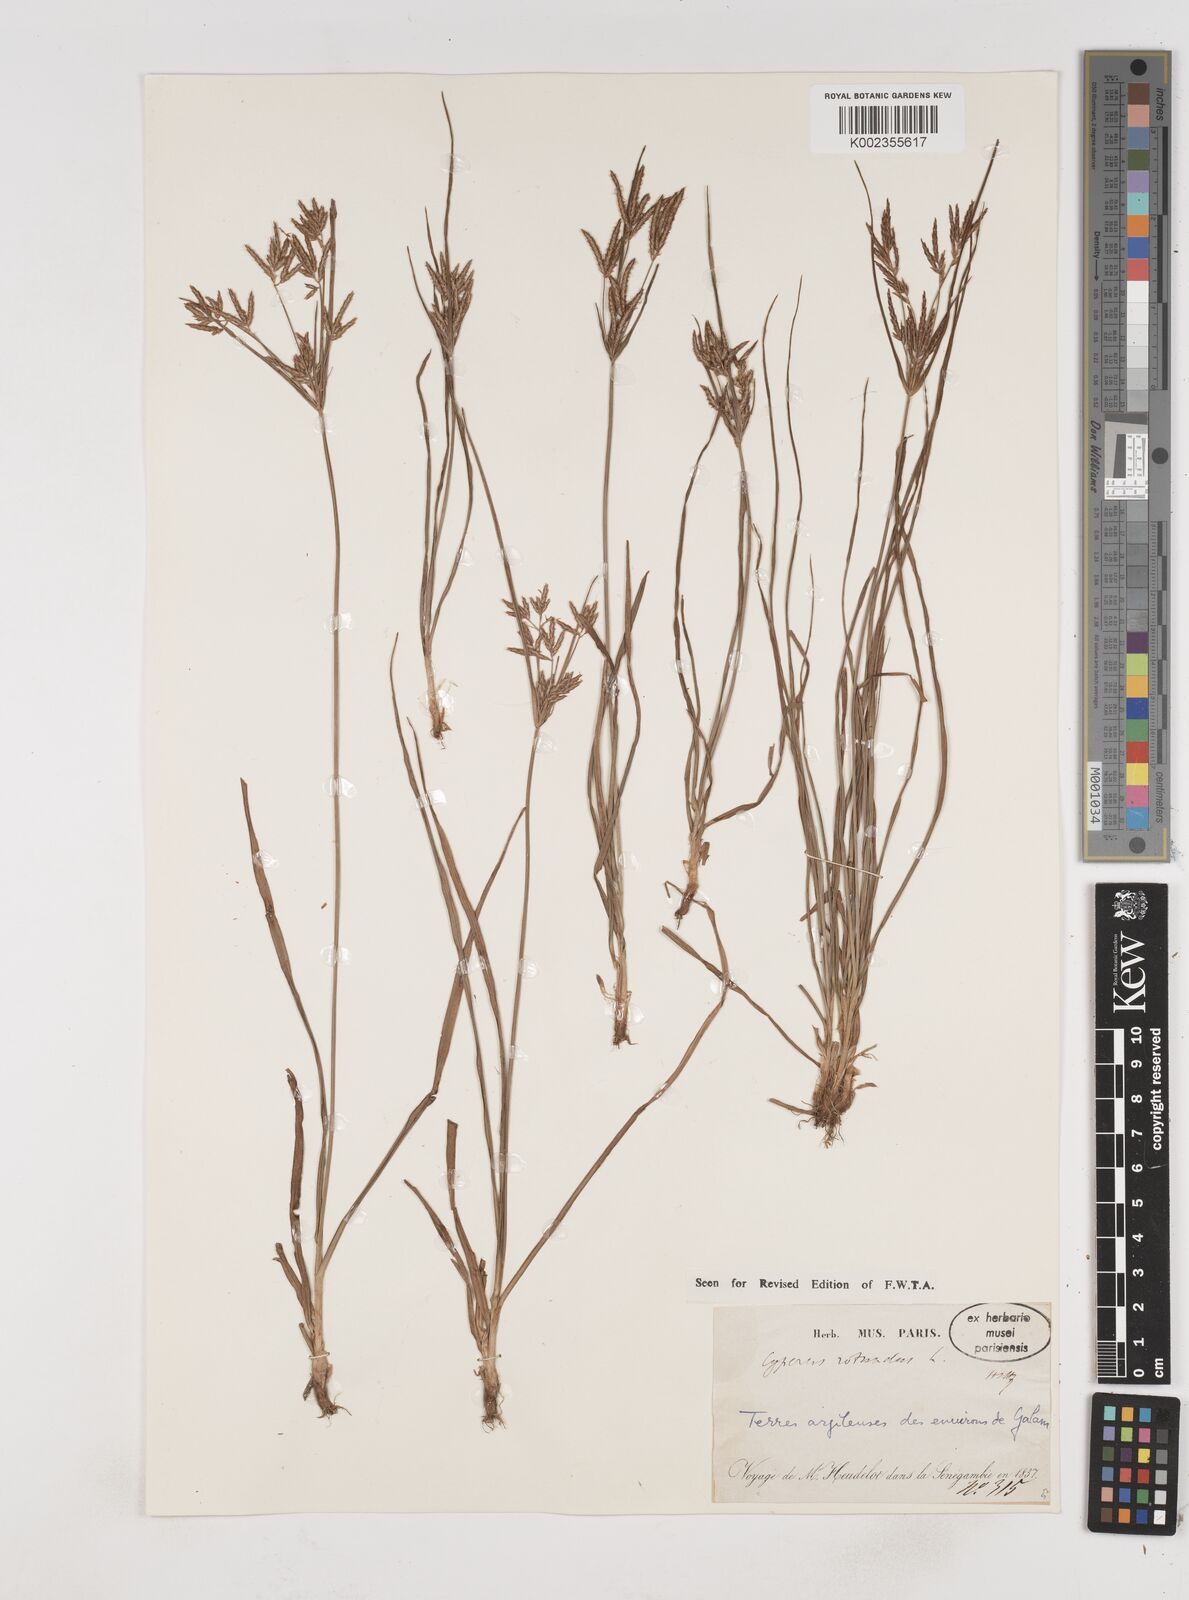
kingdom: Plantae
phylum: Tracheophyta
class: Liliopsida
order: Poales
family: Cyperaceae
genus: Cyperus
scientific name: Cyperus rotundus
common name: Nutgrass
